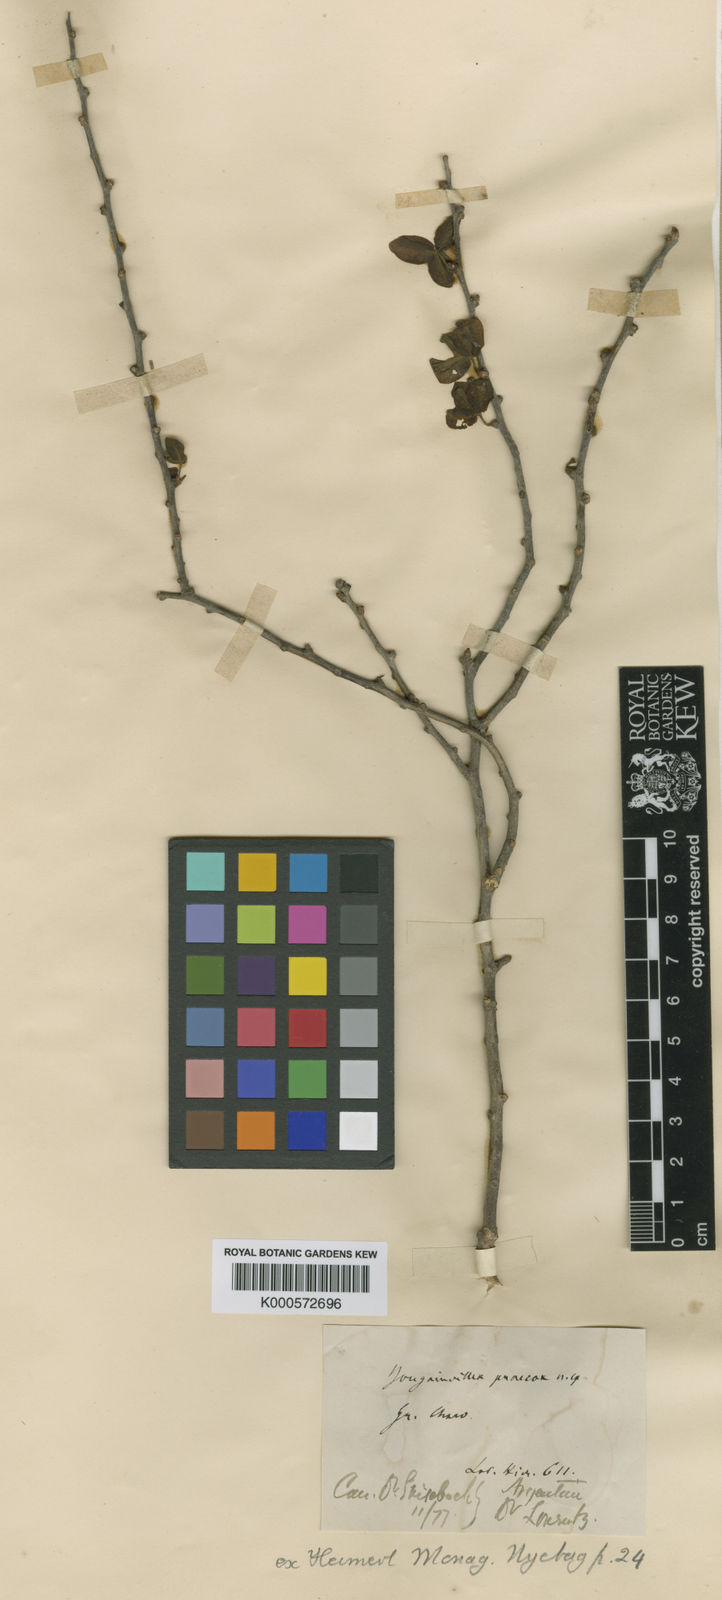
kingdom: Plantae
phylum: Tracheophyta
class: Magnoliopsida
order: Caryophyllales
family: Nyctaginaceae
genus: Bougainvillea
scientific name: Bougainvillea praecox
